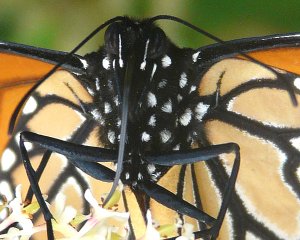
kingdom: Animalia
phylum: Arthropoda
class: Insecta
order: Lepidoptera
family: Nymphalidae
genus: Danaus
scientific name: Danaus plexippus
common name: Monarch
